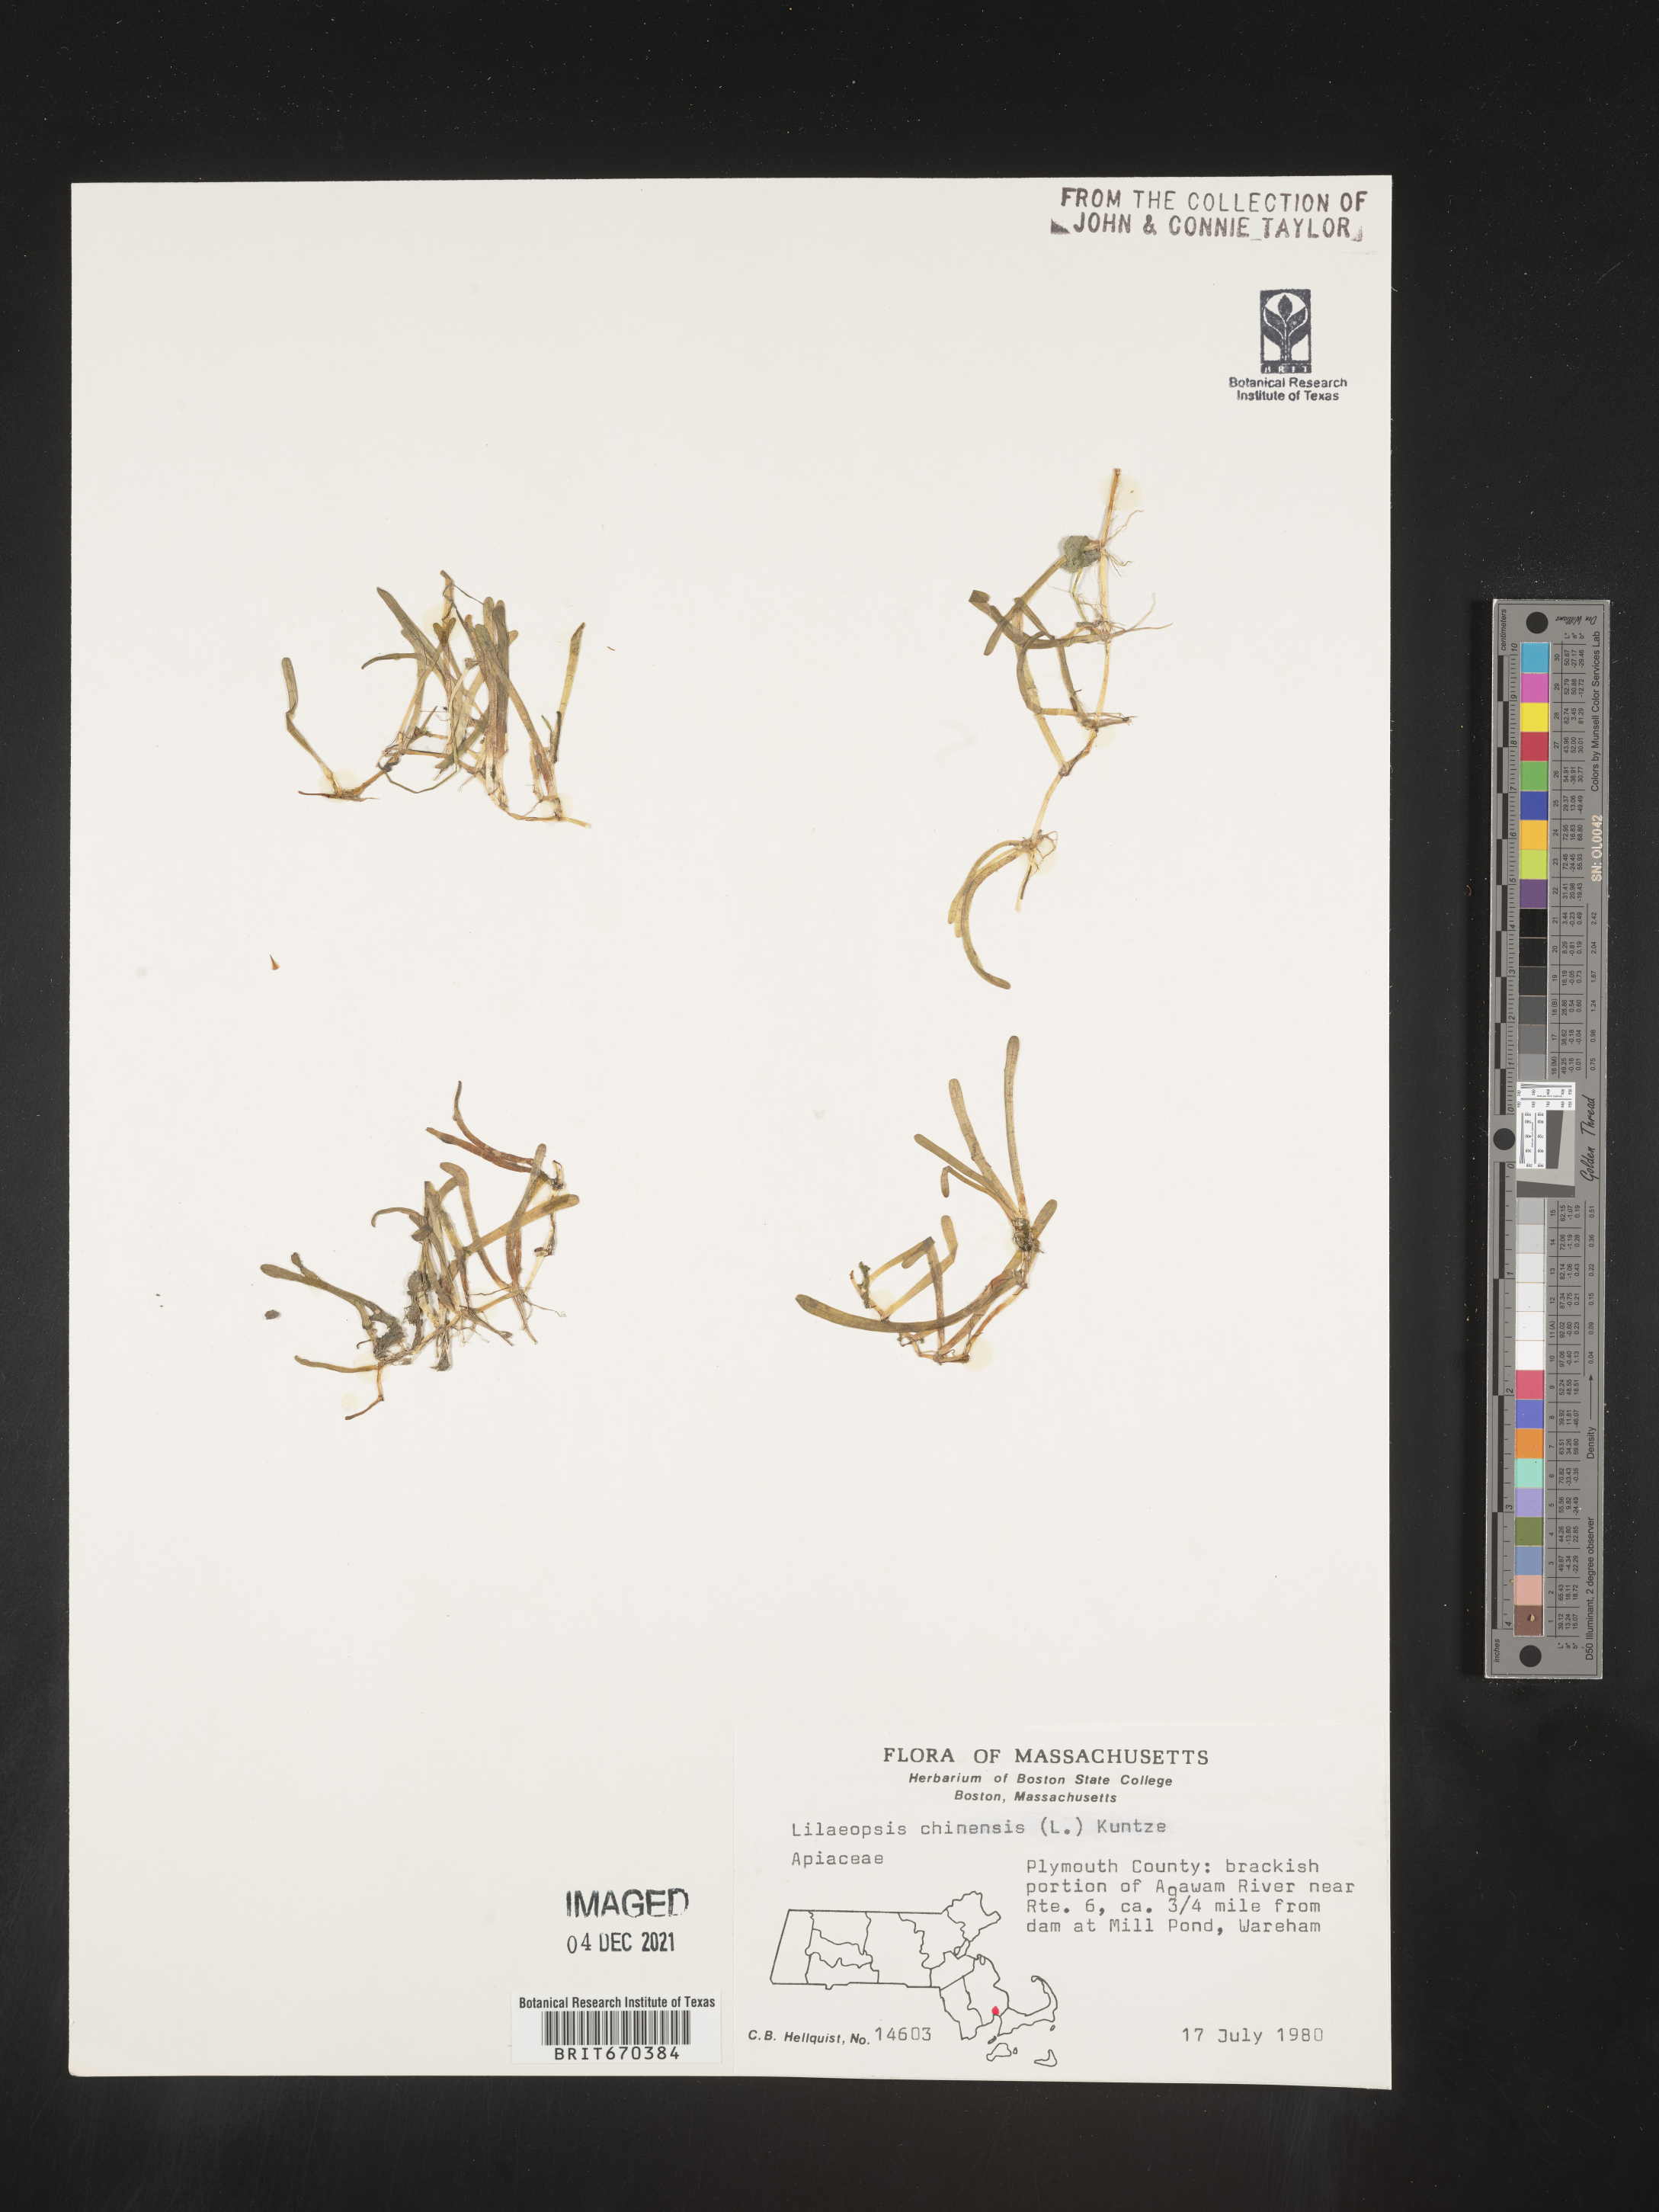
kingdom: Plantae
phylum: Tracheophyta
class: Magnoliopsida
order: Apiales
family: Apiaceae
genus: Lilaeopsis
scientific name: Lilaeopsis
